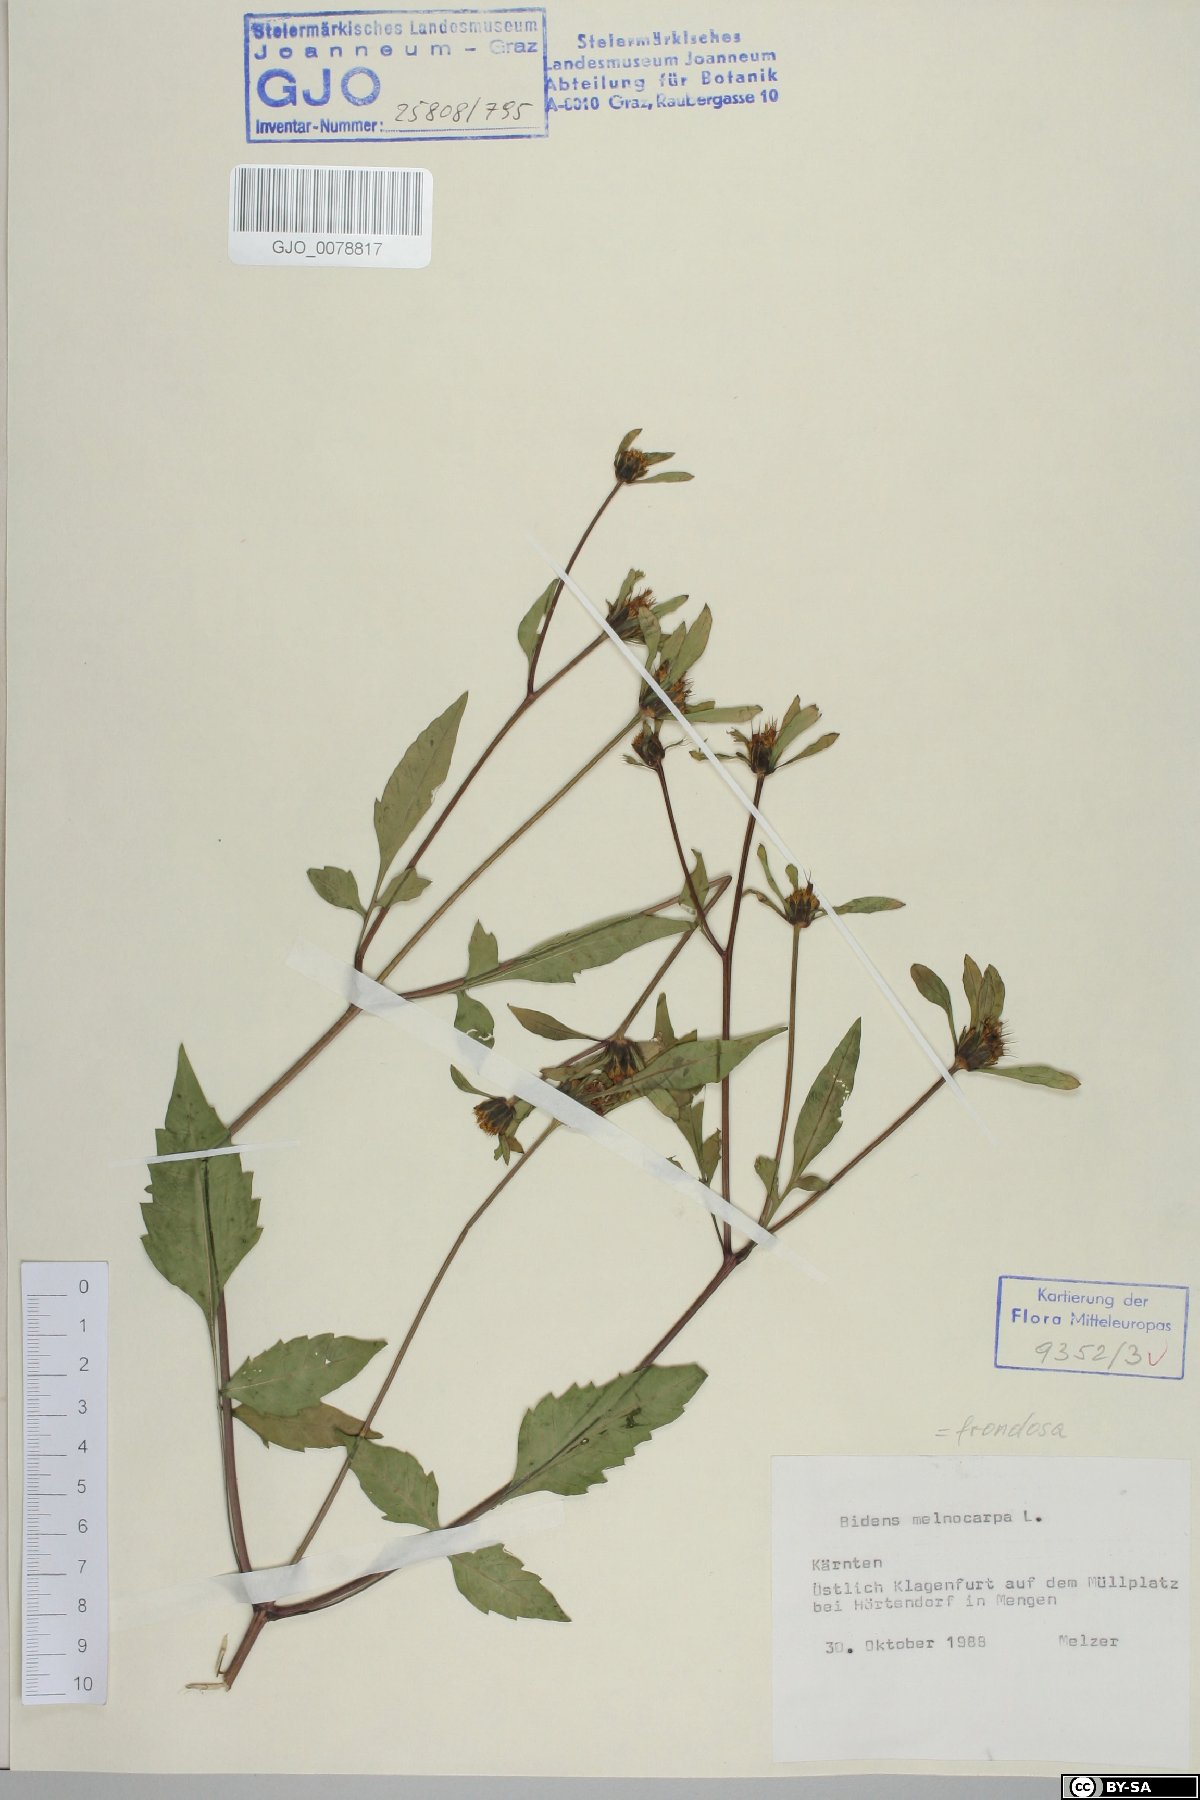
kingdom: Plantae
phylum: Tracheophyta
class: Magnoliopsida
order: Asterales
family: Asteraceae
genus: Bidens
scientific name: Bidens frondosa
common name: Beggarticks
